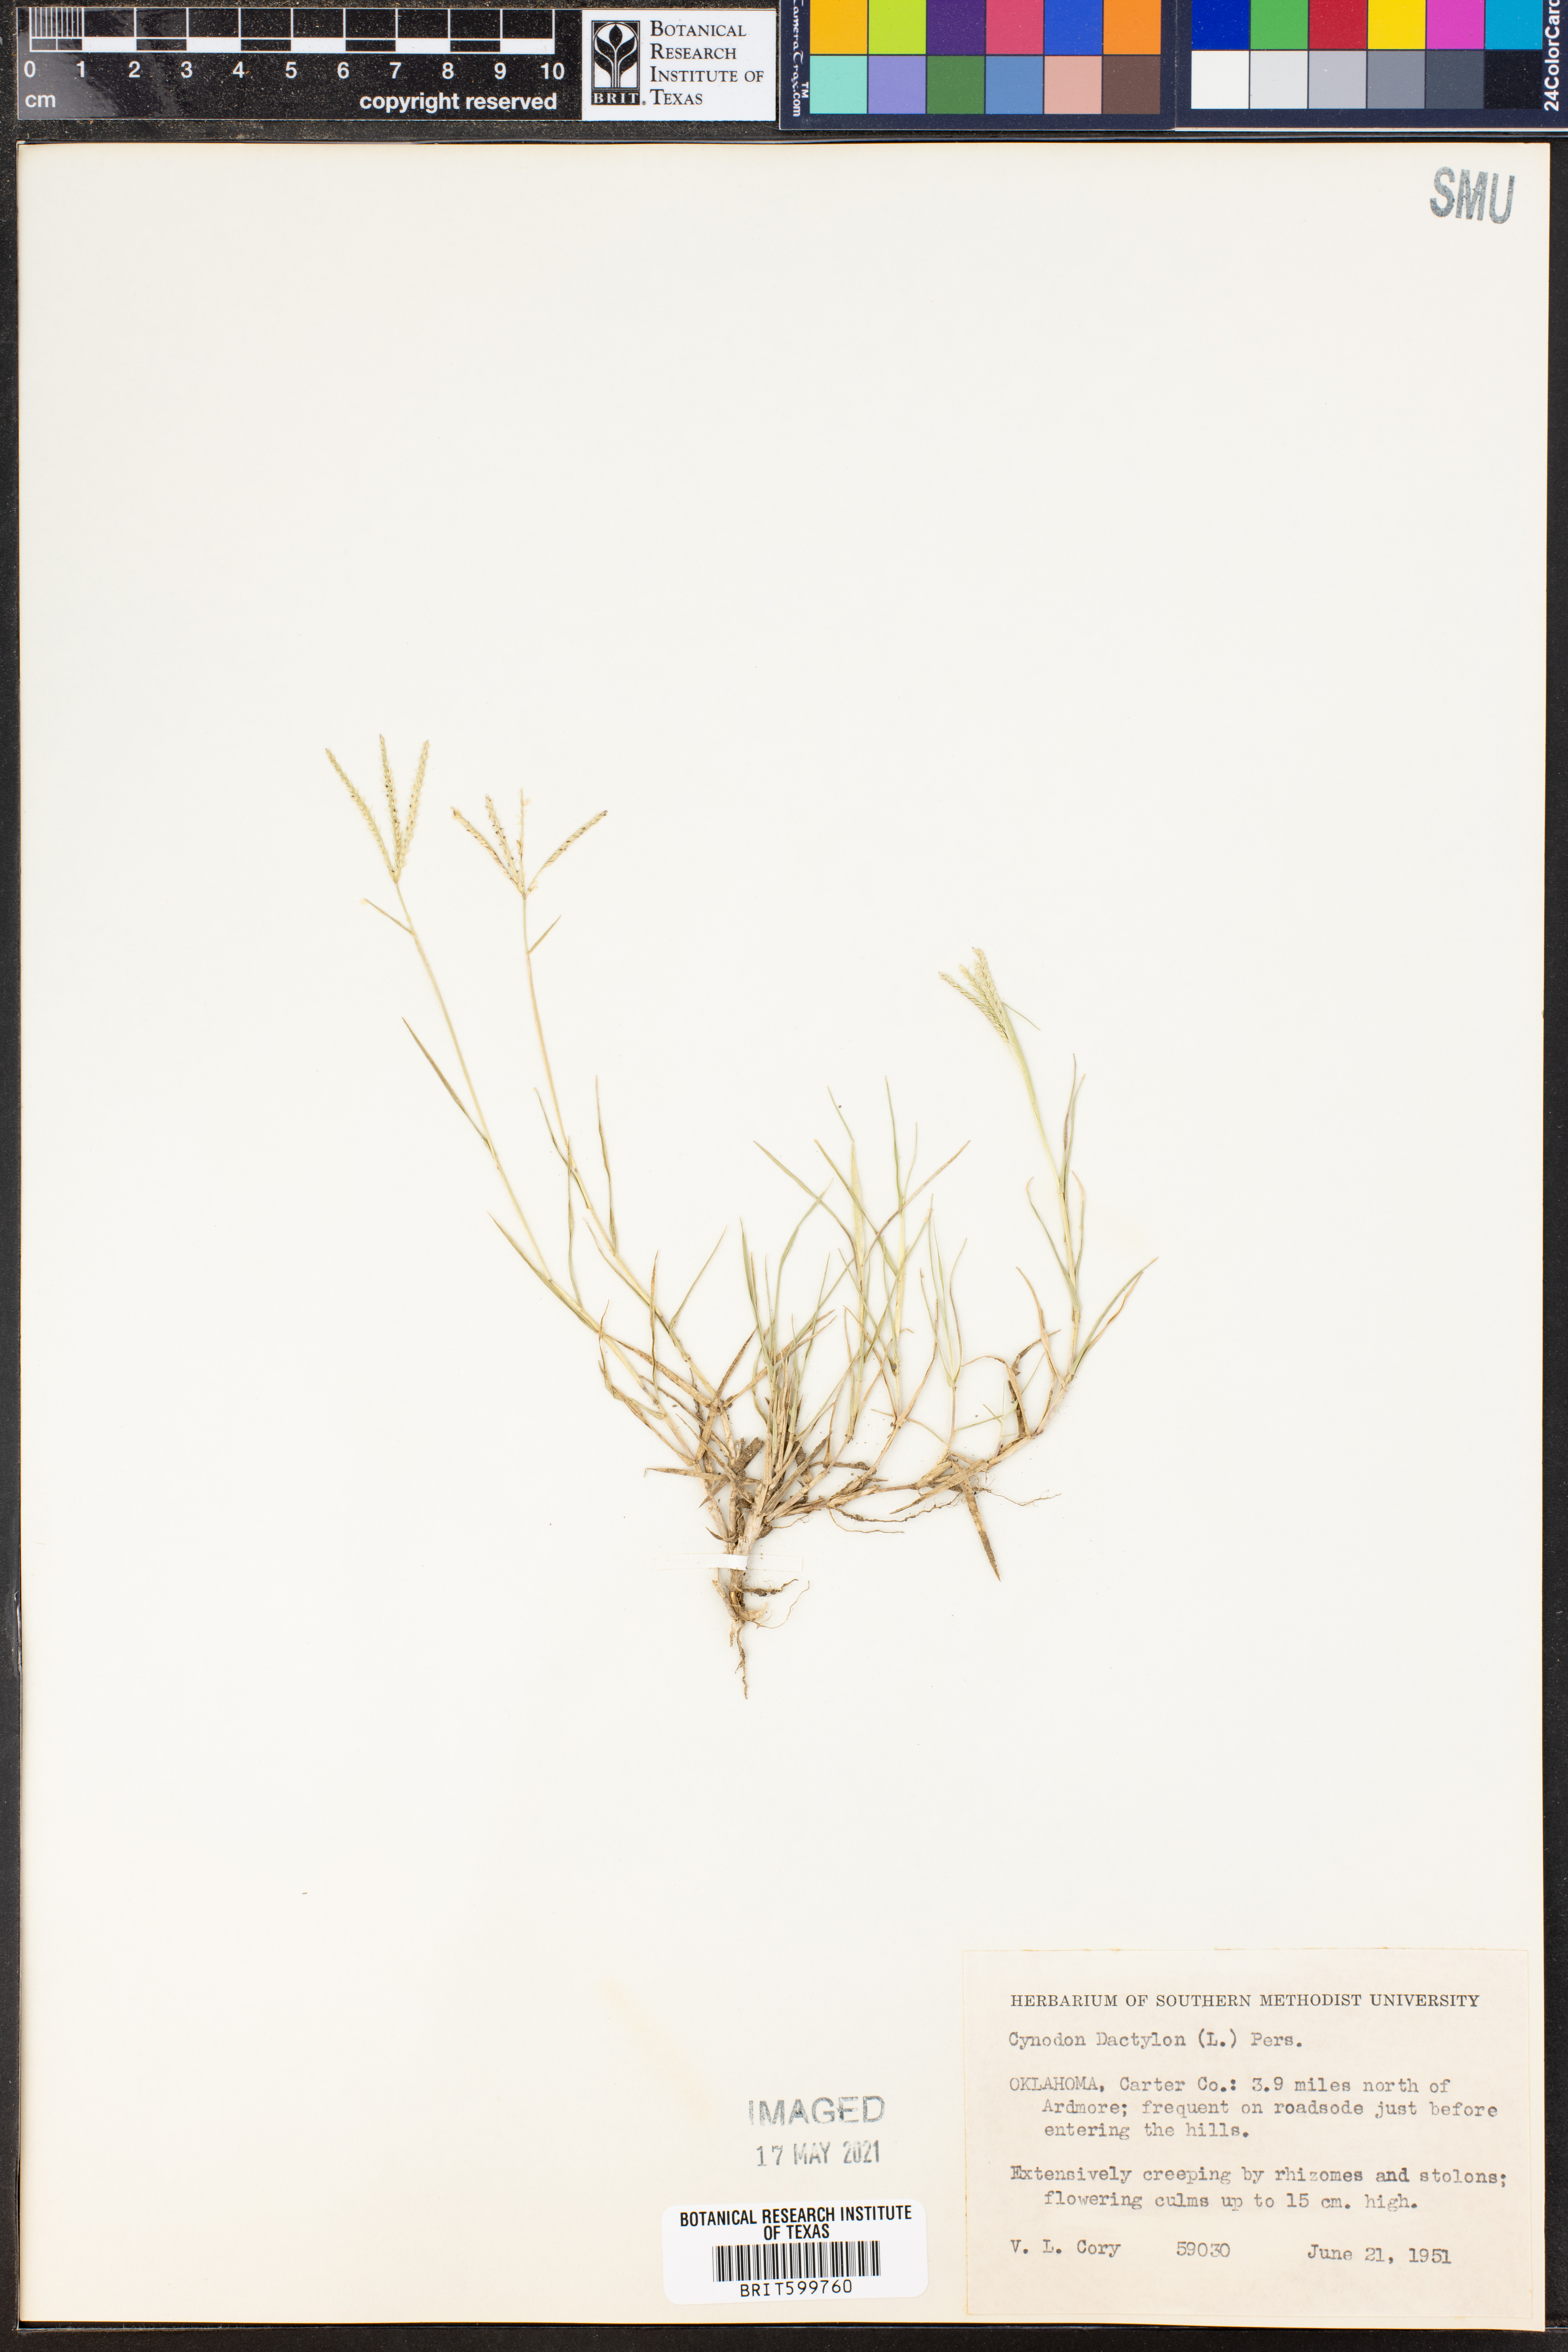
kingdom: Plantae
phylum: Tracheophyta
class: Liliopsida
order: Poales
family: Poaceae
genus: Cynodon
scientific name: Cynodon dactylon
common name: Bermuda grass
